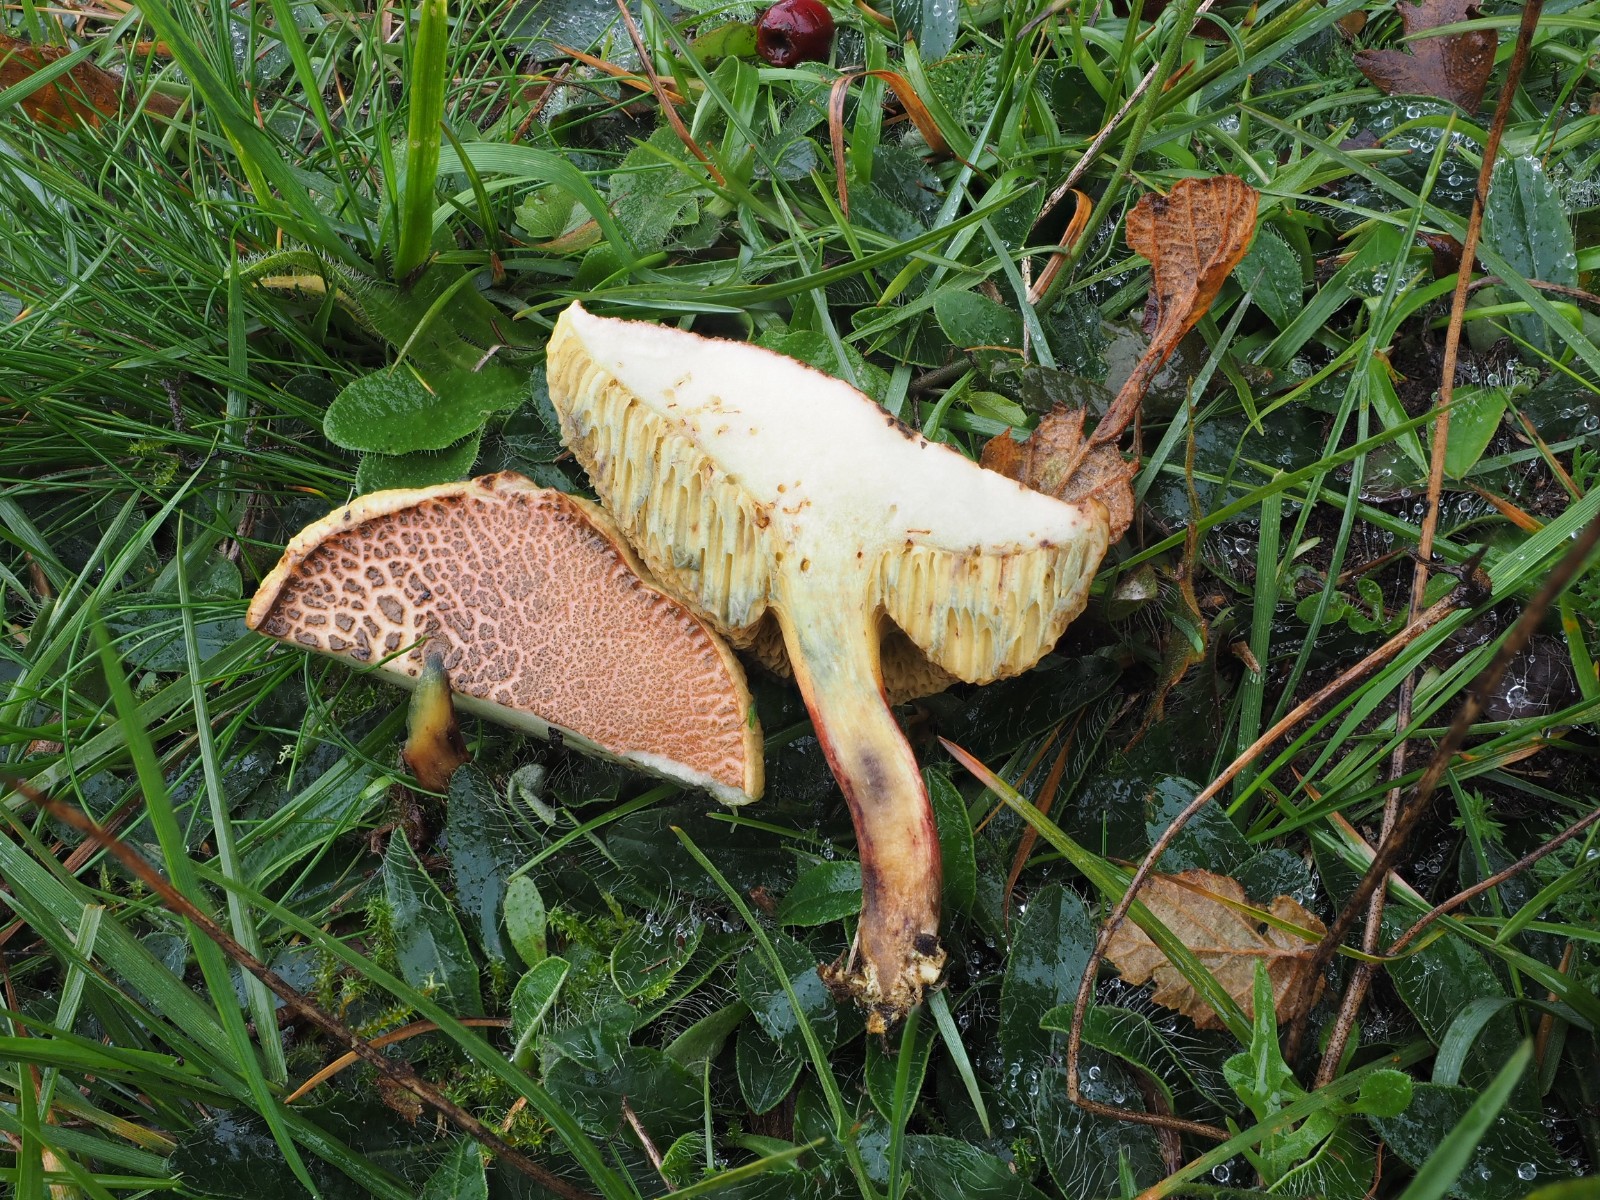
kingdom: Fungi
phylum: Basidiomycota
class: Agaricomycetes
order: Boletales
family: Boletaceae
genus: Xerocomellus
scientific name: Xerocomellus cisalpinus
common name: finsprukken rørhat
